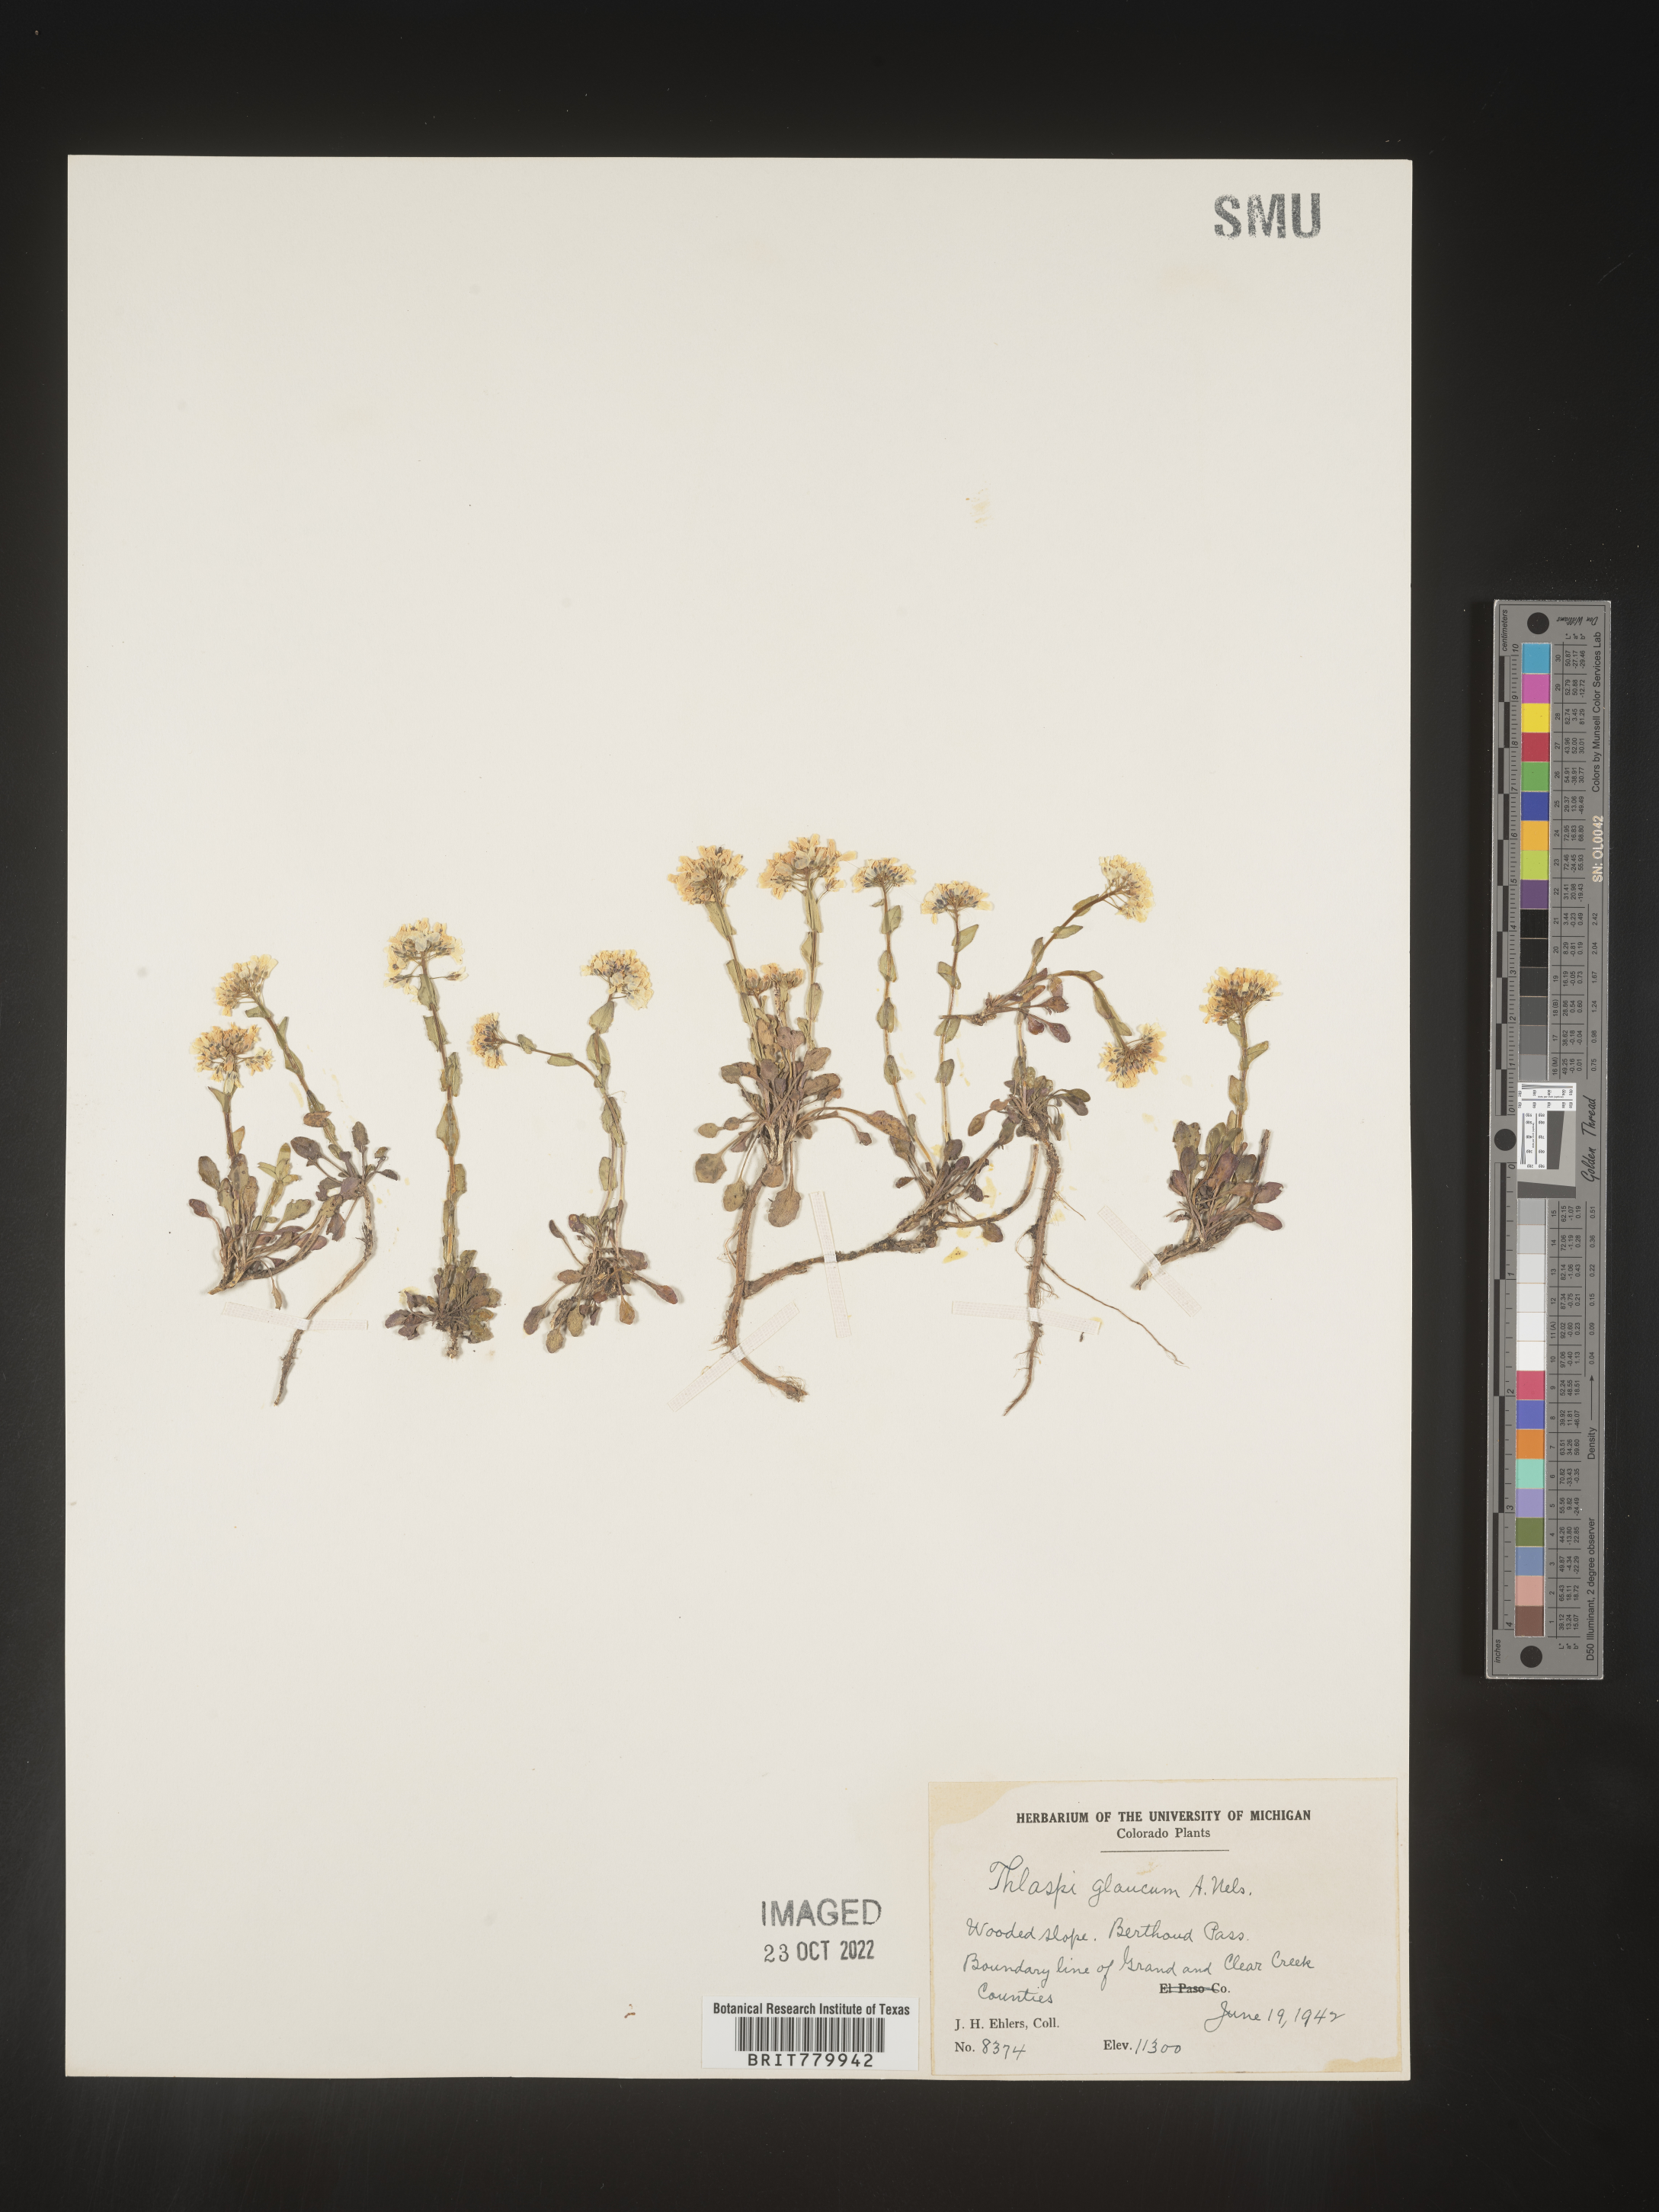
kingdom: Plantae
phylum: Tracheophyta
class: Magnoliopsida
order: Brassicales
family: Brassicaceae
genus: Thlaspi
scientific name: Thlaspi
